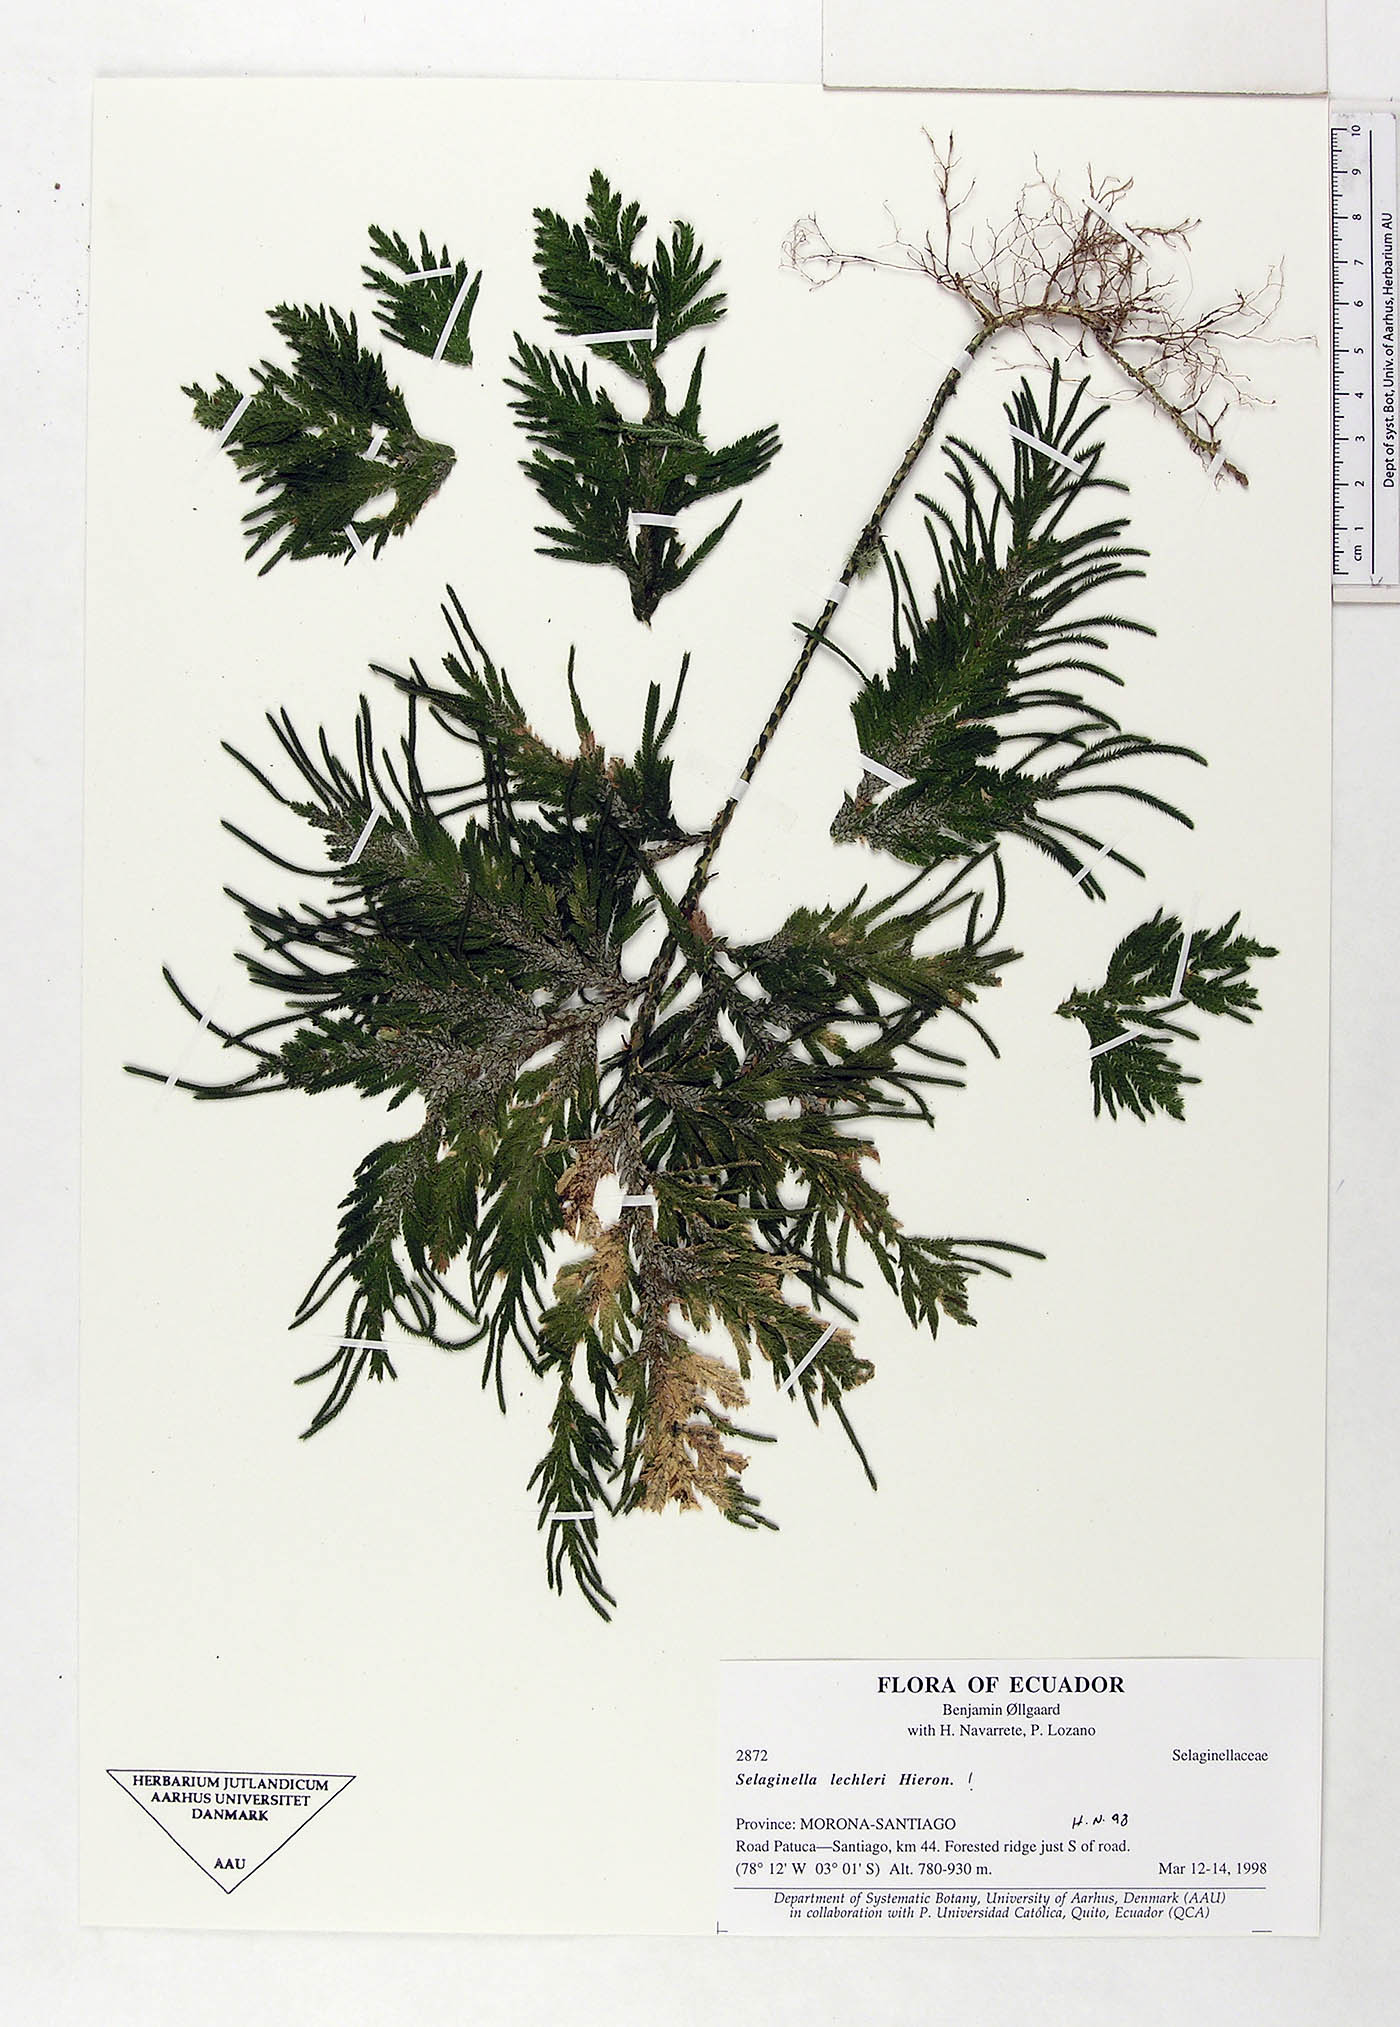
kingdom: Plantae
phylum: Tracheophyta
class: Lycopodiopsida
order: Selaginellales
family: Selaginellaceae
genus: Selaginella
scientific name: Selaginella lechleri
